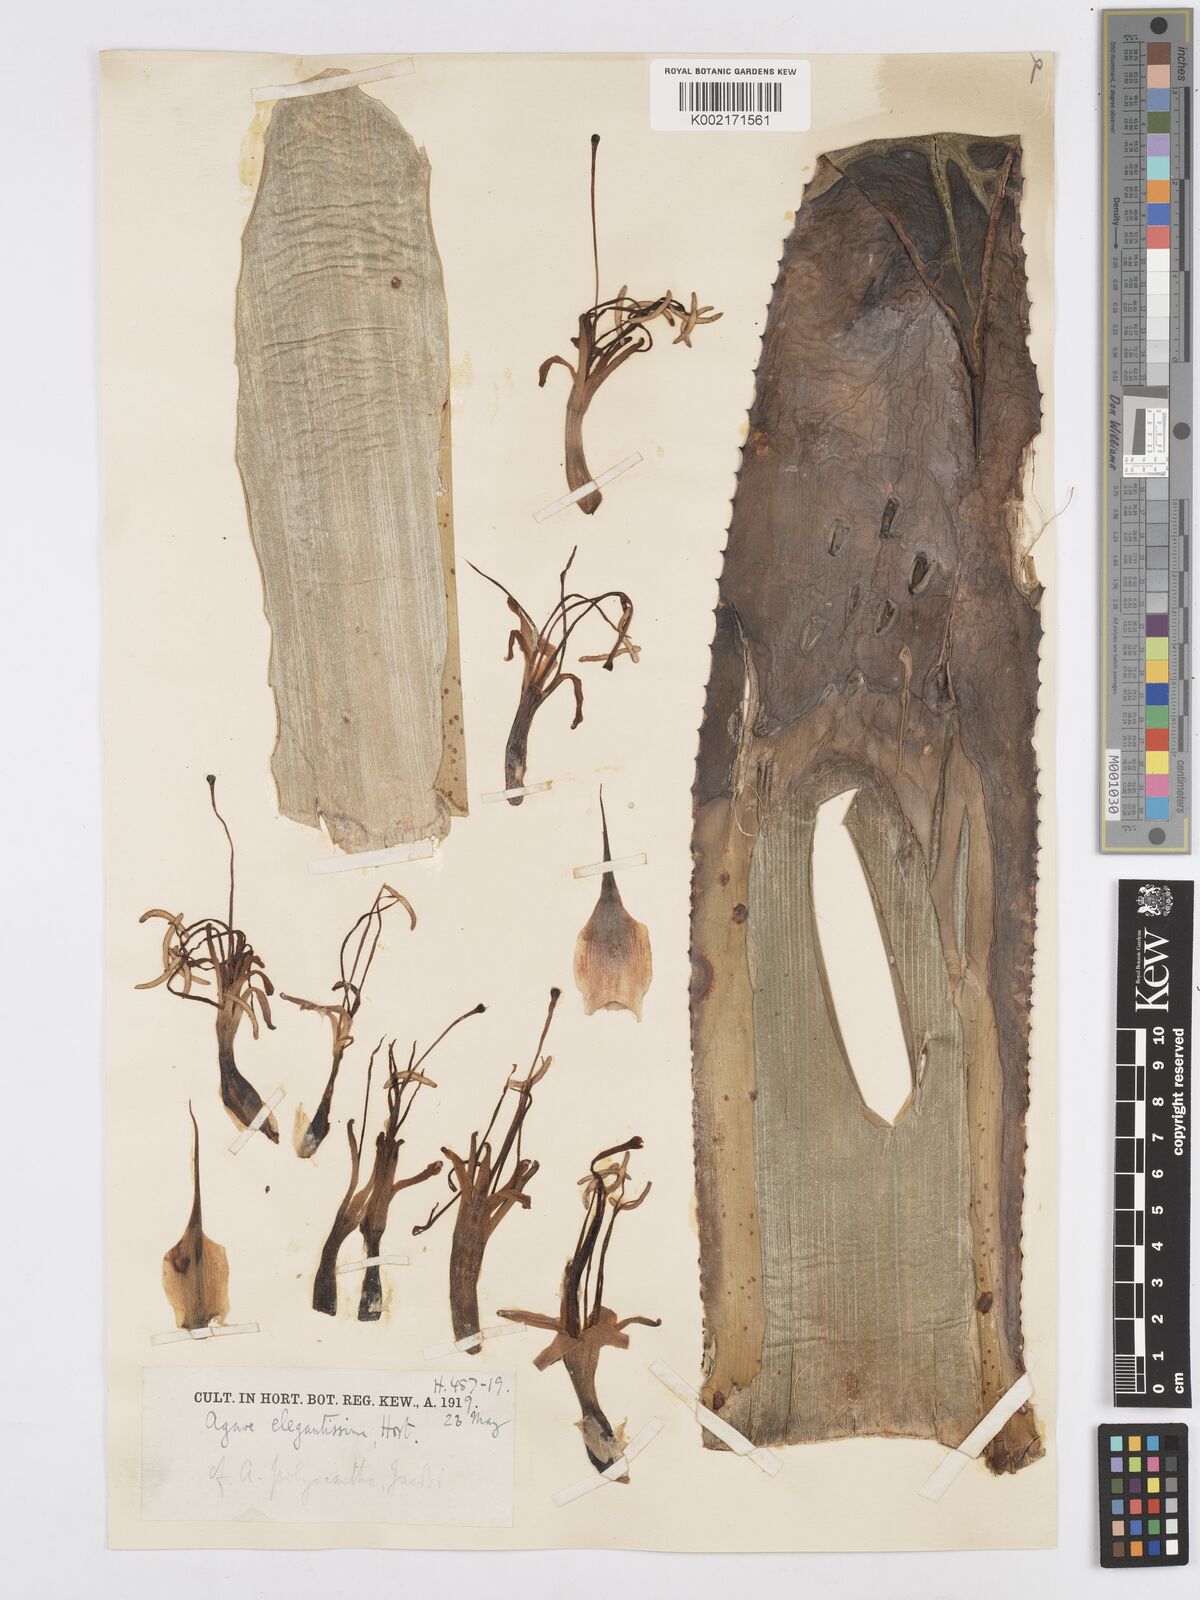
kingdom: Plantae
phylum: Tracheophyta
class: Liliopsida
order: Asparagales
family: Asparagaceae
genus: Agave
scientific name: Agave
